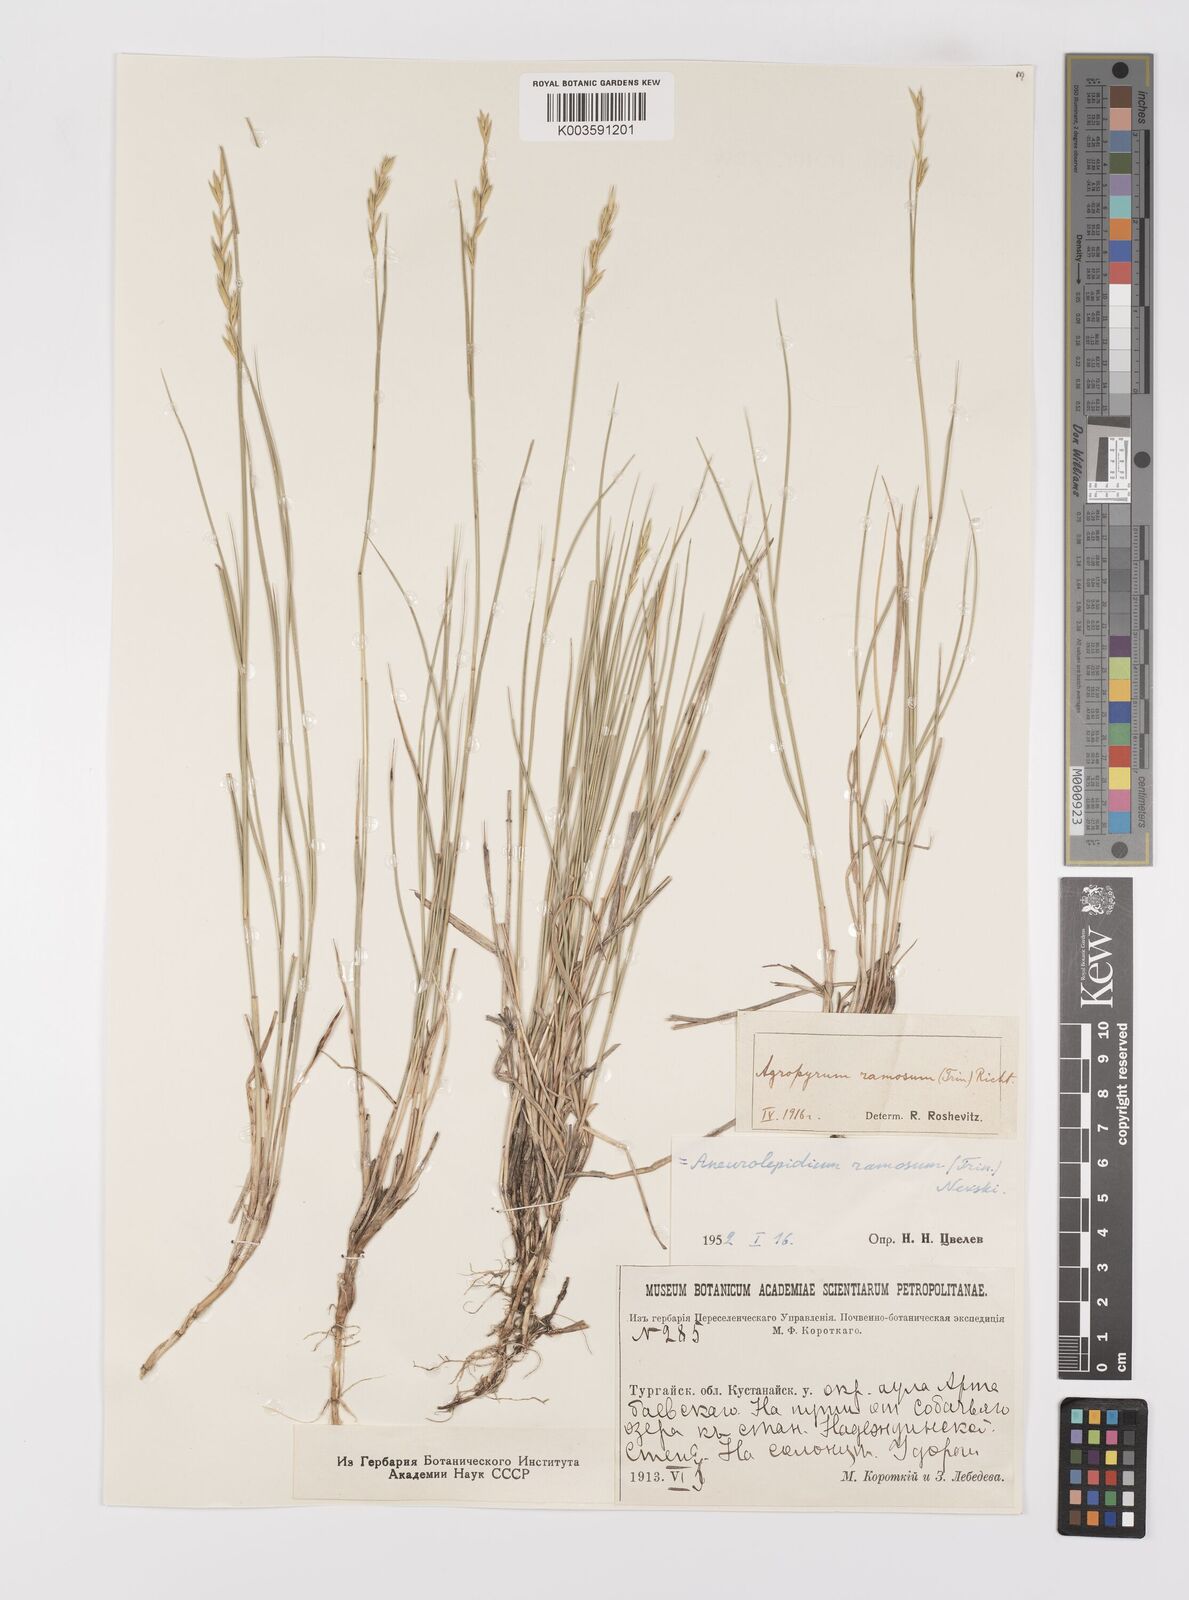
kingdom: Plantae
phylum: Tracheophyta
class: Liliopsida
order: Poales
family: Poaceae
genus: Leymus
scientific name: Leymus ramosus
